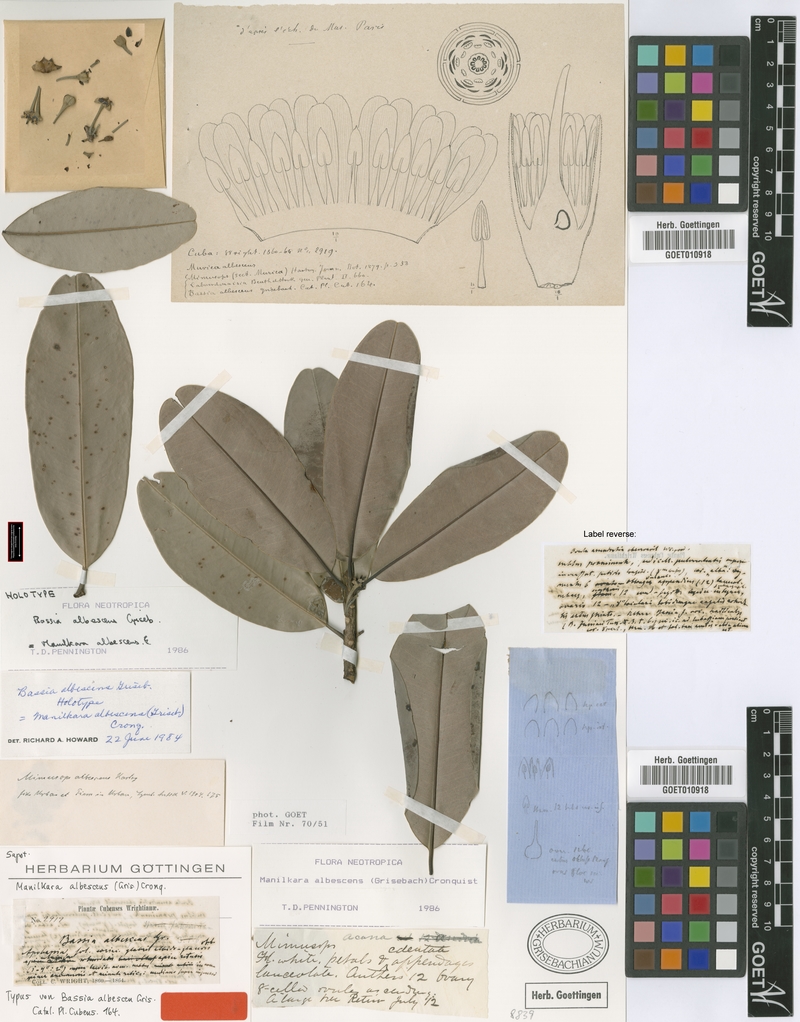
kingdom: Plantae
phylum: Tracheophyta
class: Magnoliopsida
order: Ericales
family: Sapotaceae
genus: Manilkara
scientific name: Manilkara valenzuelana
